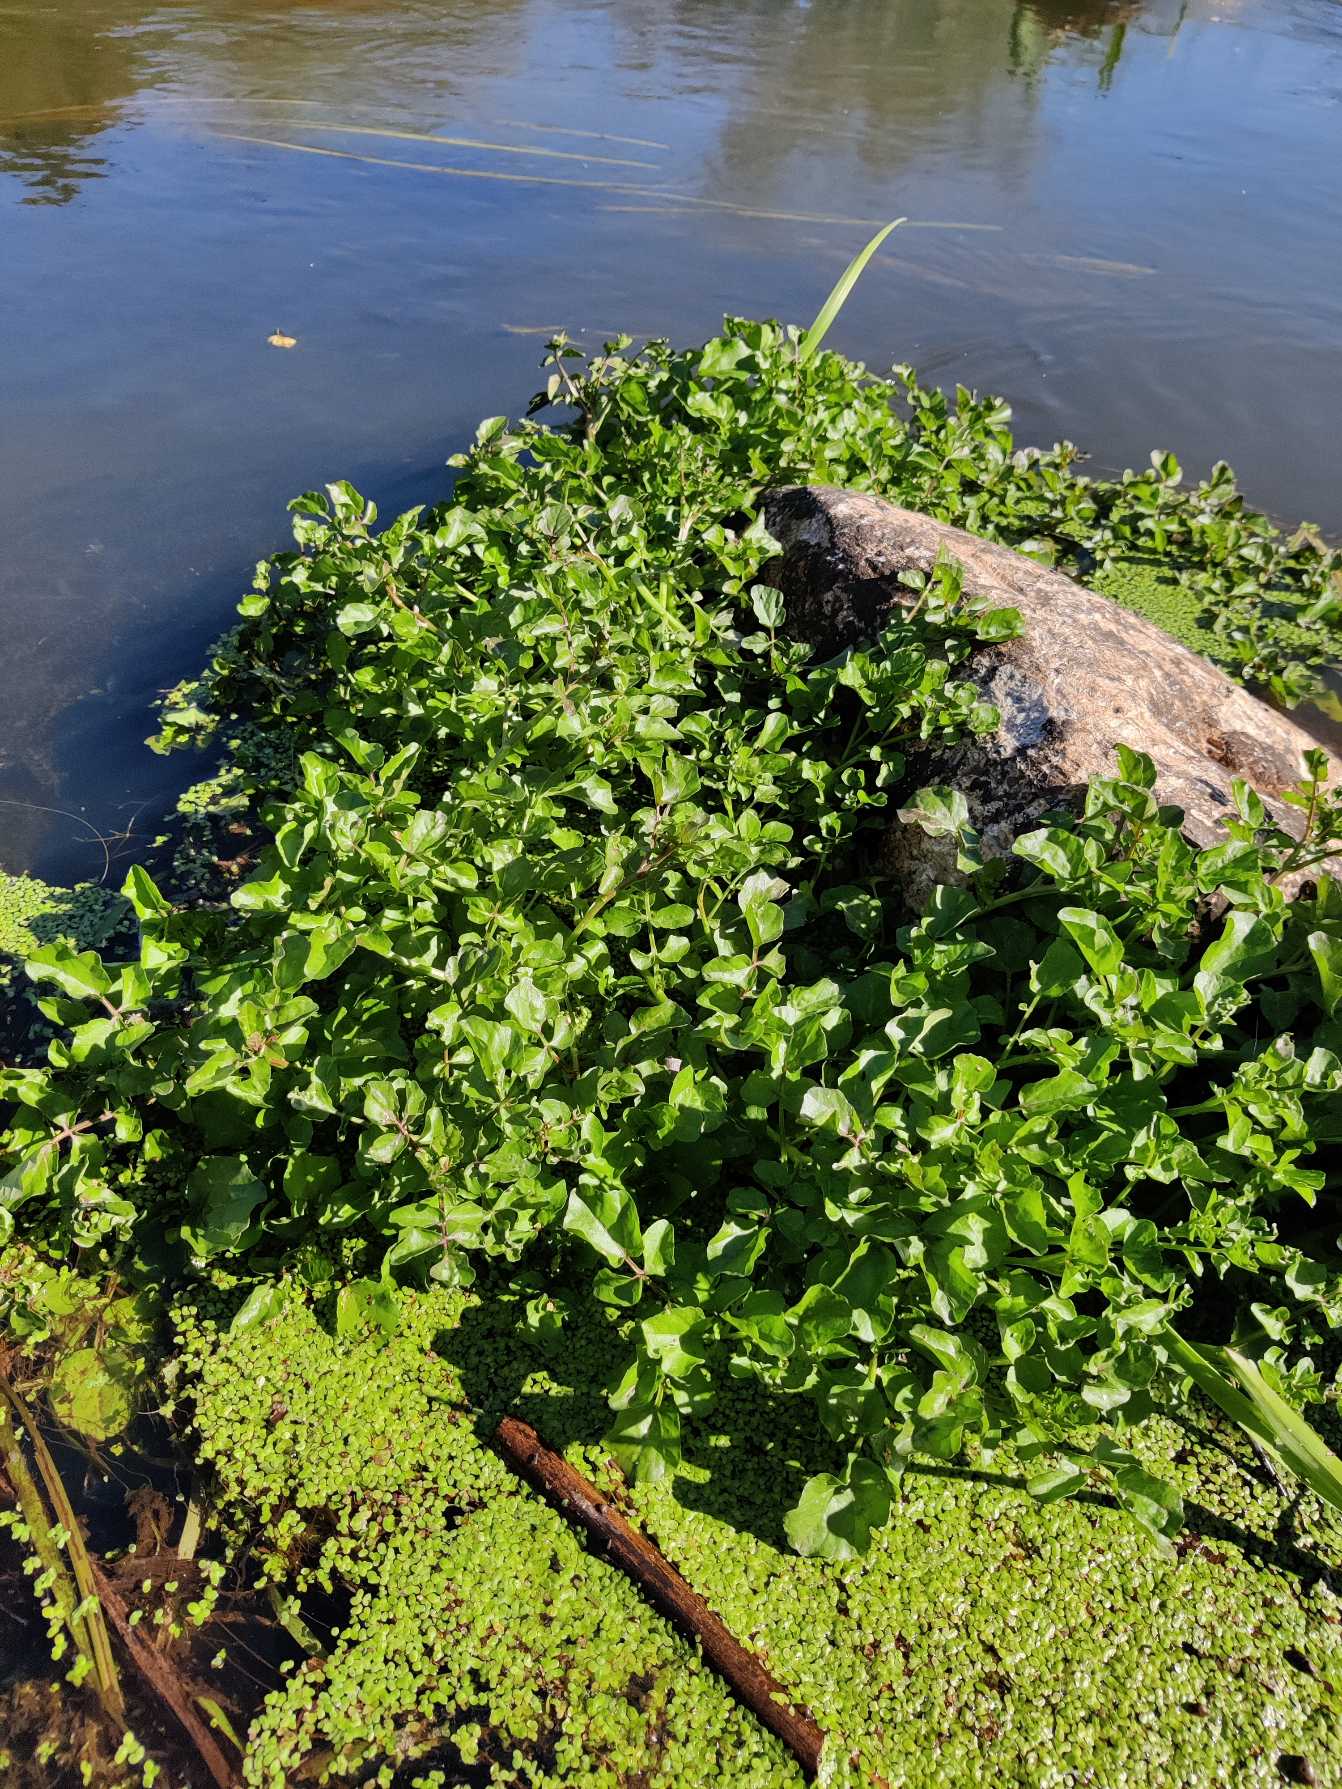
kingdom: Plantae
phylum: Tracheophyta
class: Magnoliopsida
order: Brassicales
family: Brassicaceae
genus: Nasturtium
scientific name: Nasturtium
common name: Brøndkarseslægten
